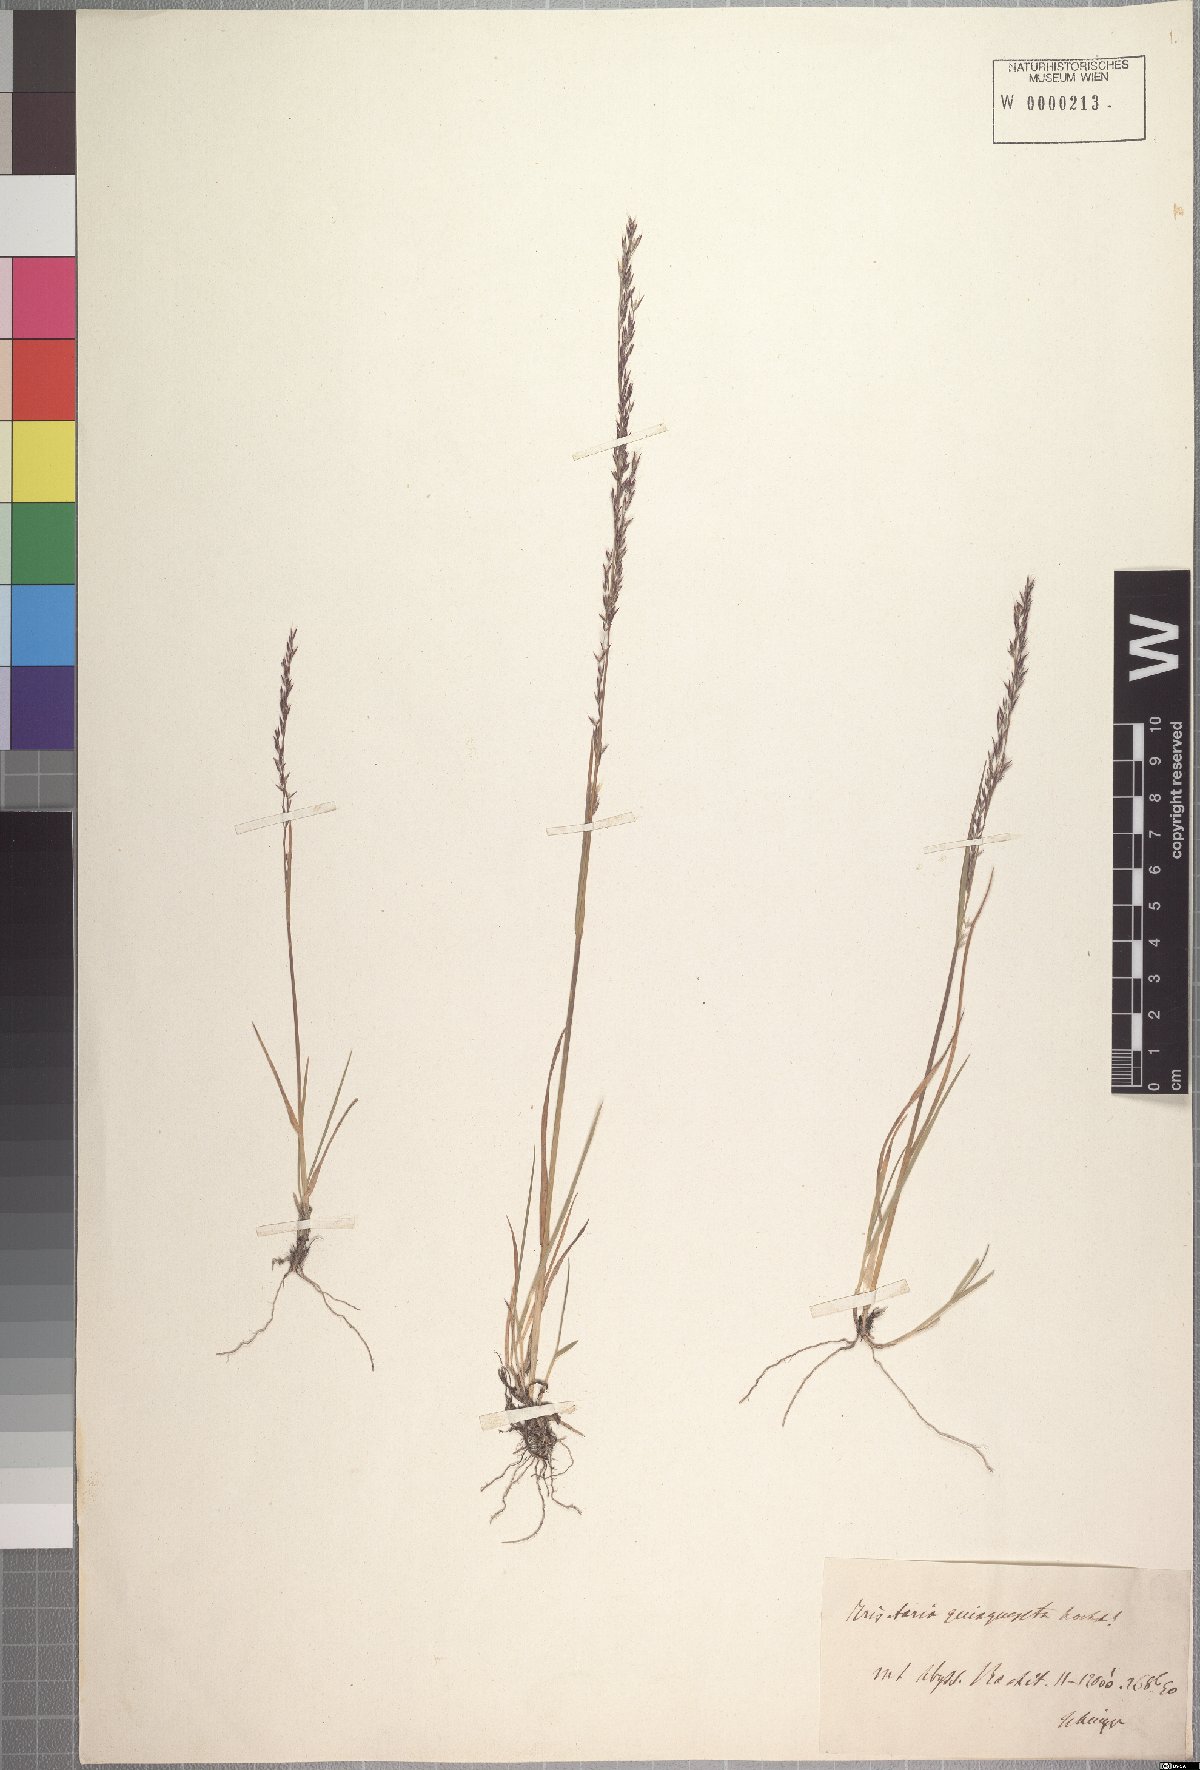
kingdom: Plantae
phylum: Tracheophyta
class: Liliopsida
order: Poales
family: Poaceae
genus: Agrostis
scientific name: Agrostis quinqueseta
